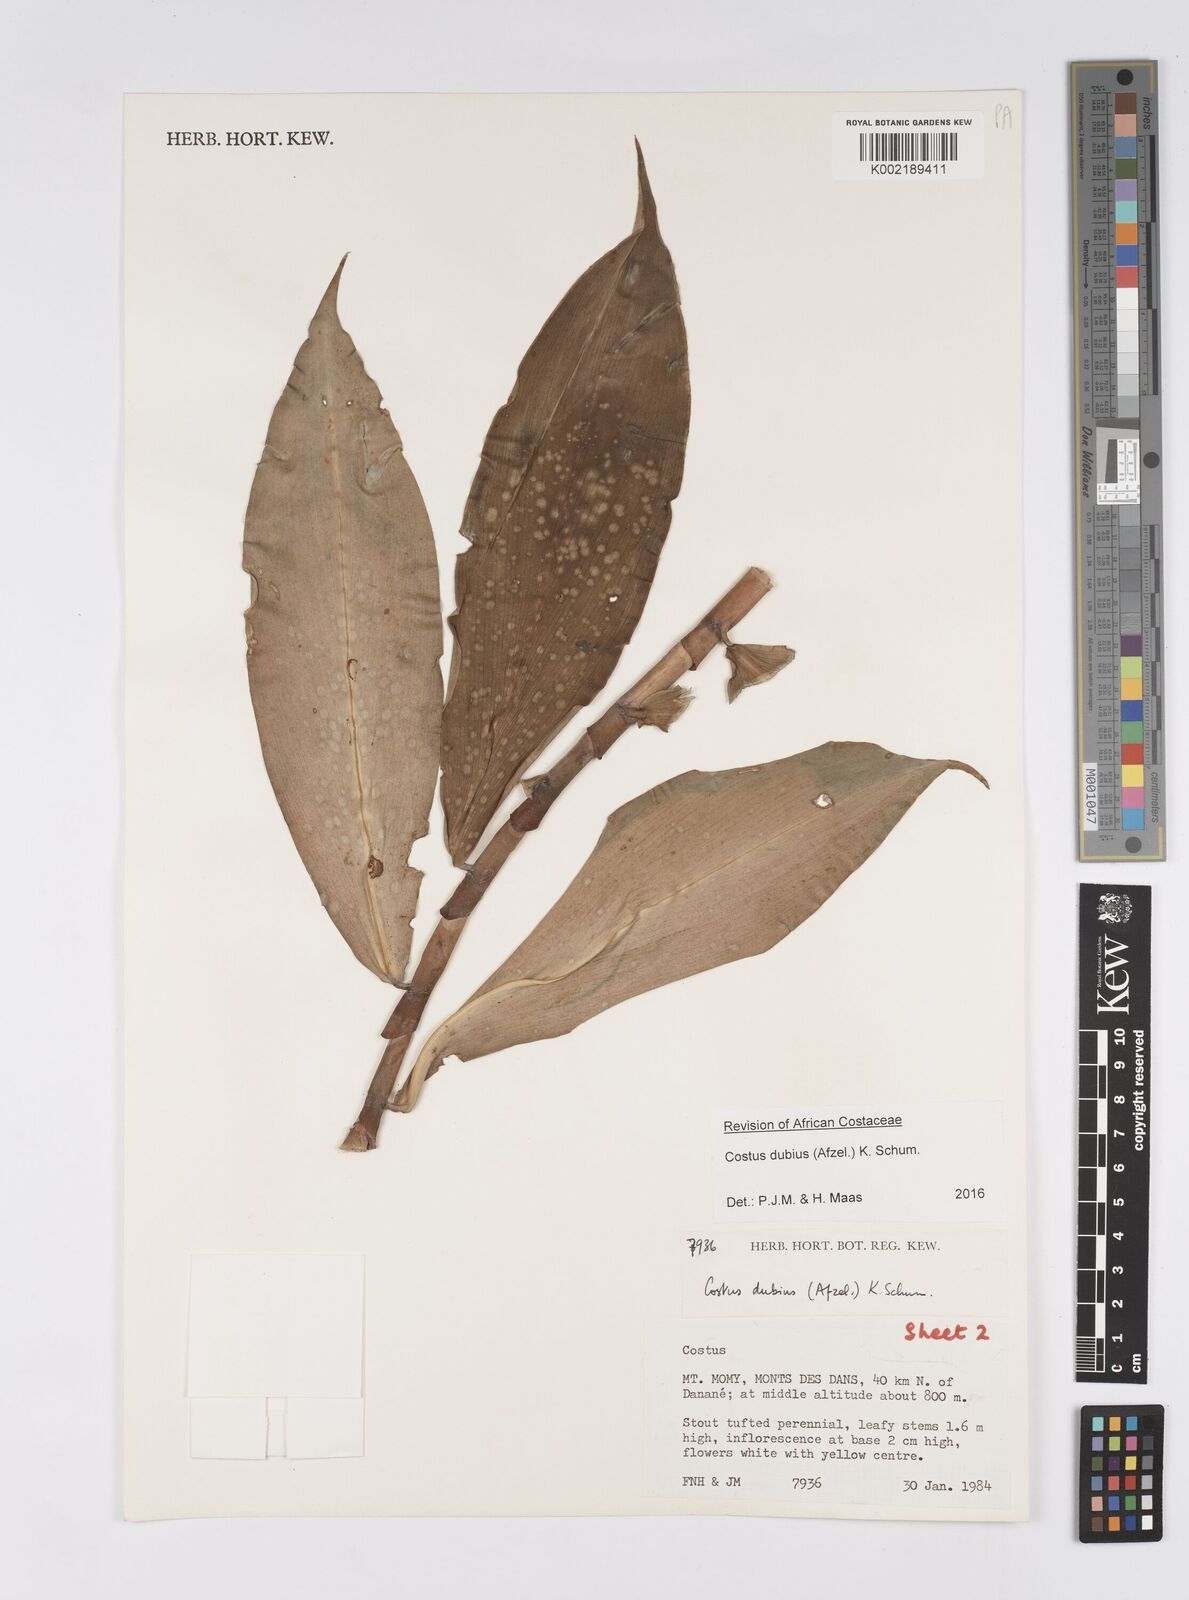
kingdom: Plantae
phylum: Tracheophyta
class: Liliopsida
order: Zingiberales
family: Costaceae
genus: Costus
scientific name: Costus dubius
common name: Costus
